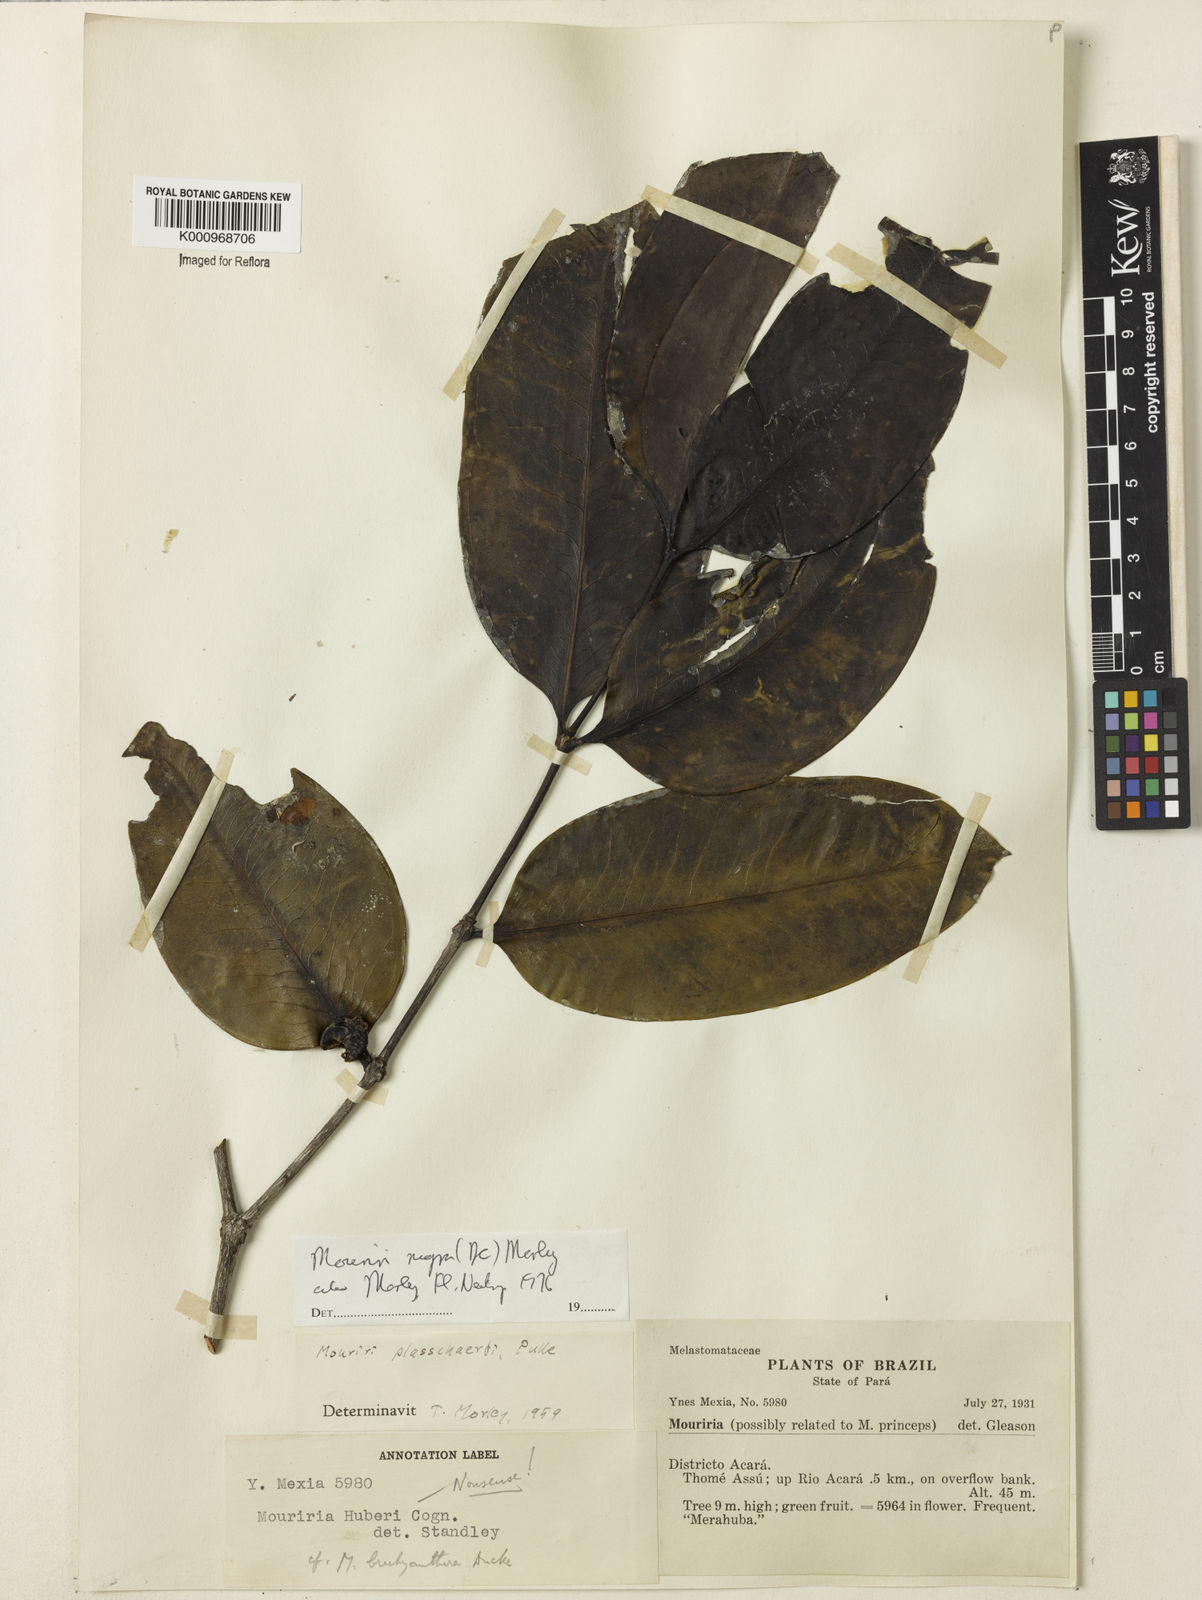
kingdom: Plantae
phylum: Tracheophyta
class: Magnoliopsida
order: Myrtales
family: Melastomataceae
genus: Mouriri
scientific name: Mouriri nigra
